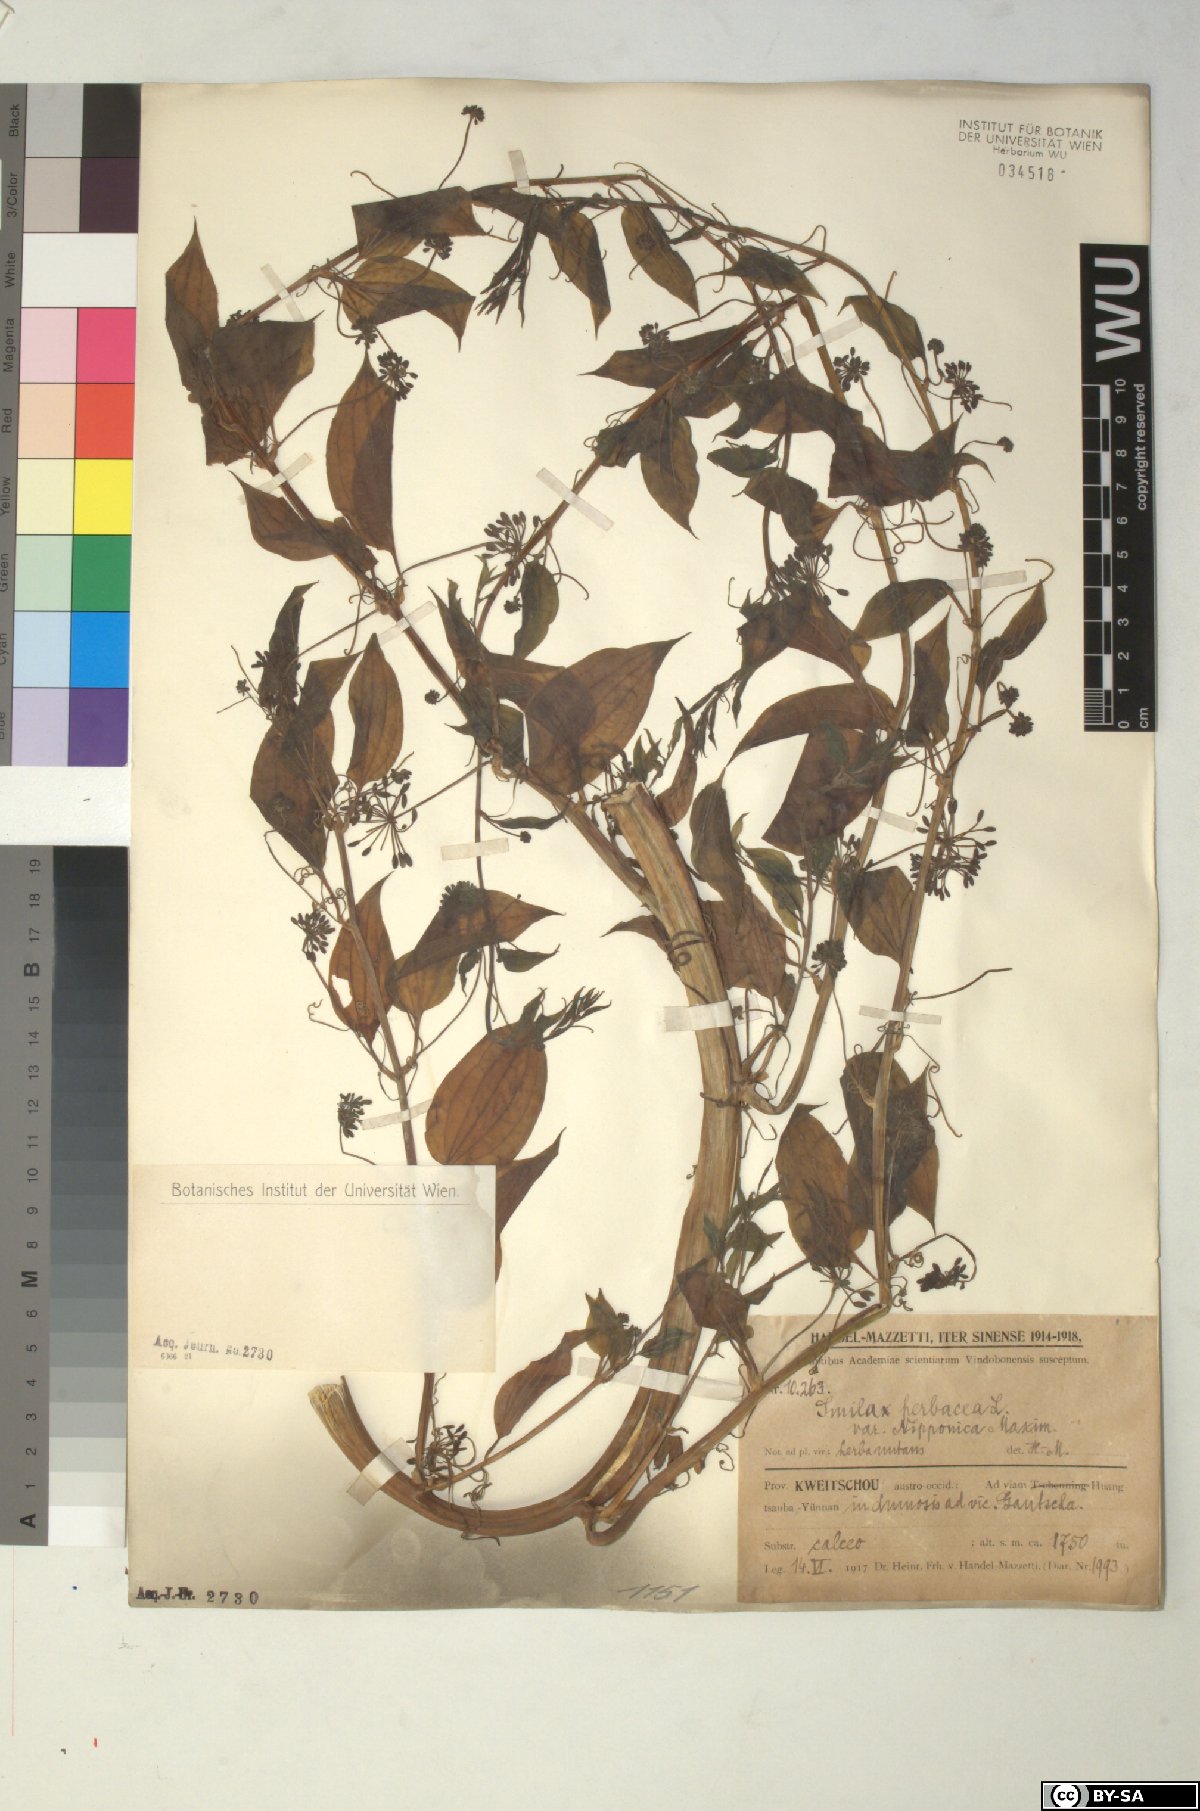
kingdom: Plantae
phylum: Tracheophyta
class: Liliopsida
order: Liliales
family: Smilacaceae
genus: Smilax
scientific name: Smilax nipponica
